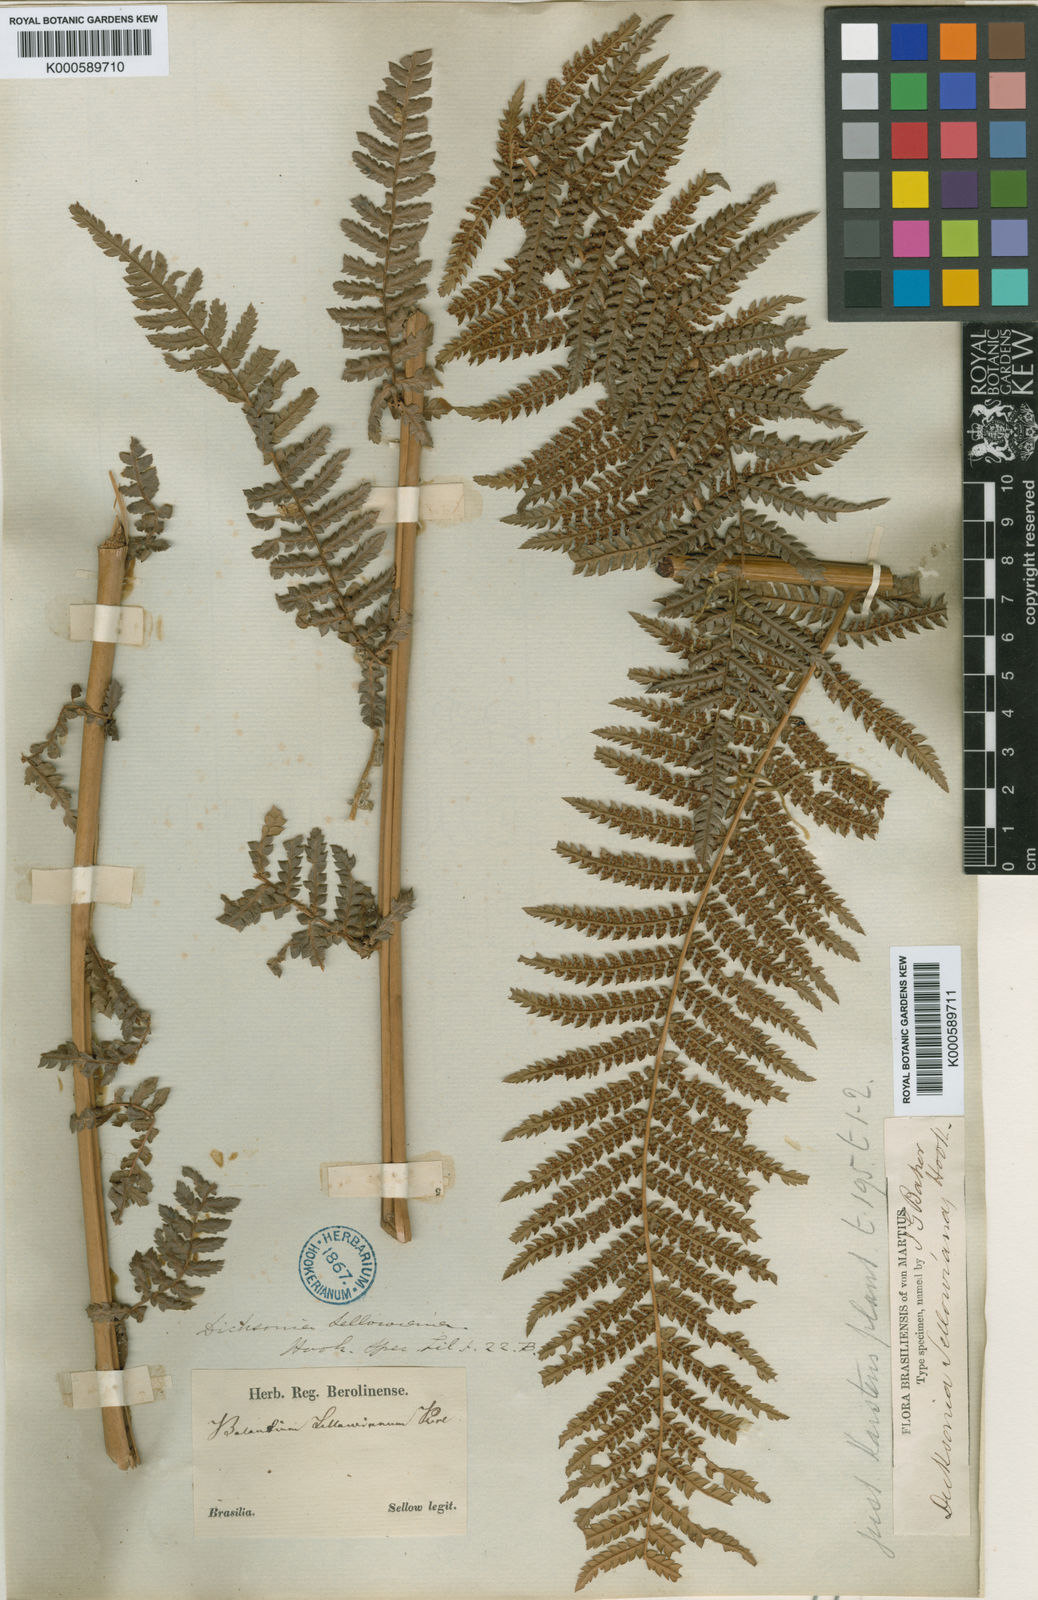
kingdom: Plantae
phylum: Tracheophyta
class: Polypodiopsida
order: Cyatheales
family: Dicksoniaceae
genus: Dicksonia
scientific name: Dicksonia sellowiana
